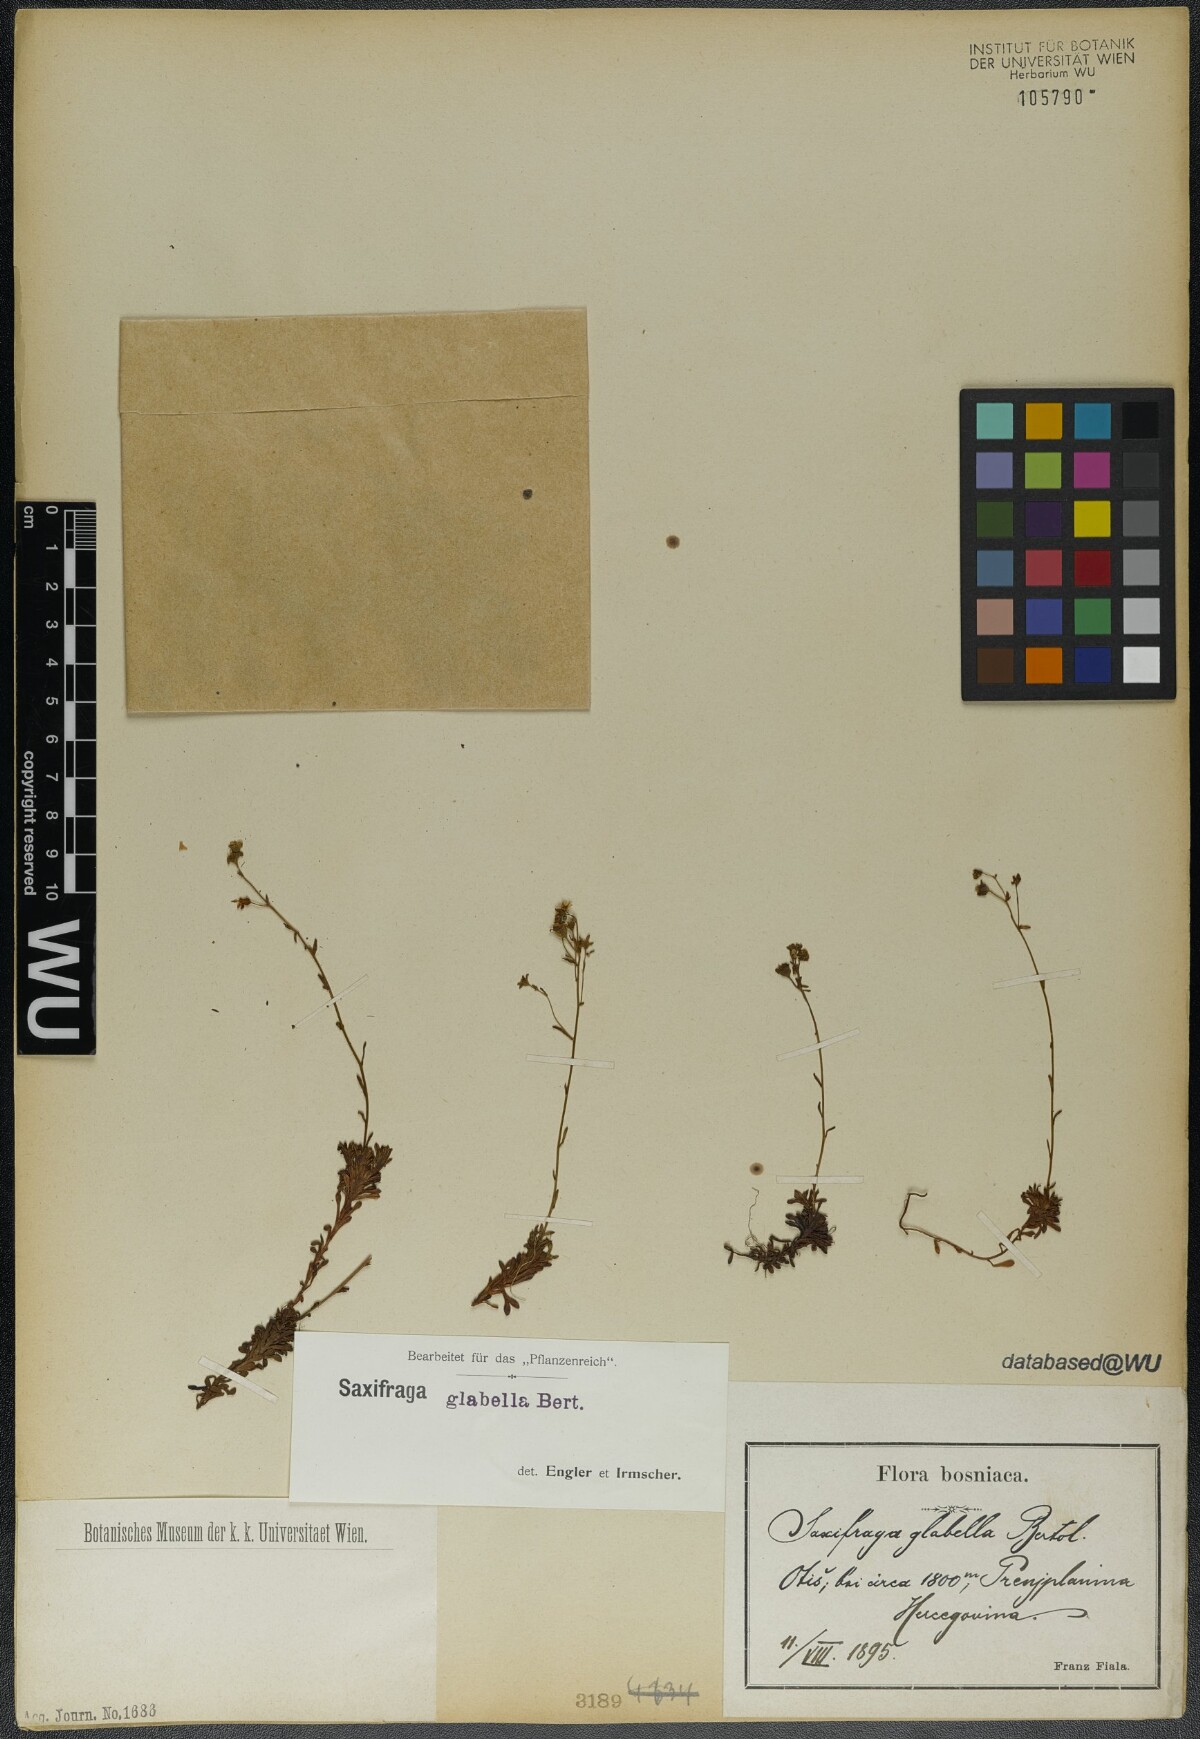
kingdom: Plantae
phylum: Tracheophyta
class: Magnoliopsida
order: Saxifragales
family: Saxifragaceae
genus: Saxifraga
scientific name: Saxifraga glabella
